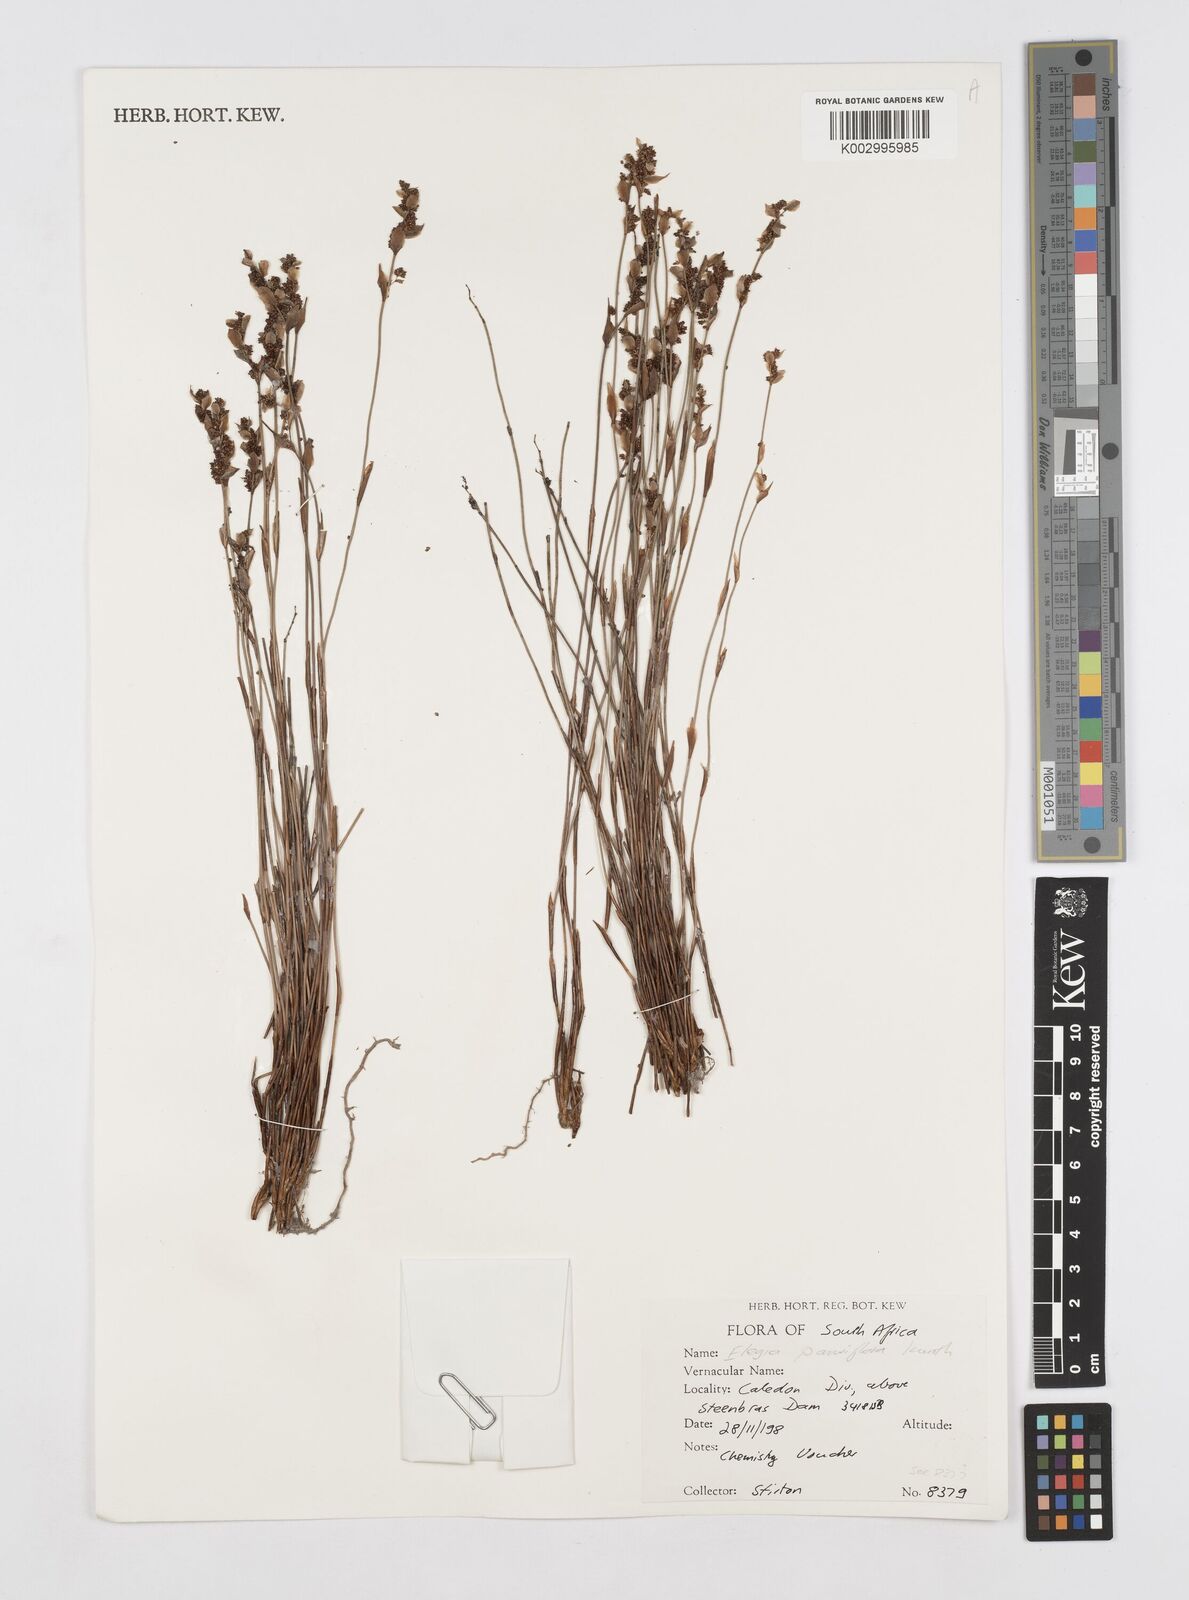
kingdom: Plantae
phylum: Tracheophyta
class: Liliopsida
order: Poales
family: Restionaceae
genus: Cannomois
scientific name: Cannomois parviflora
